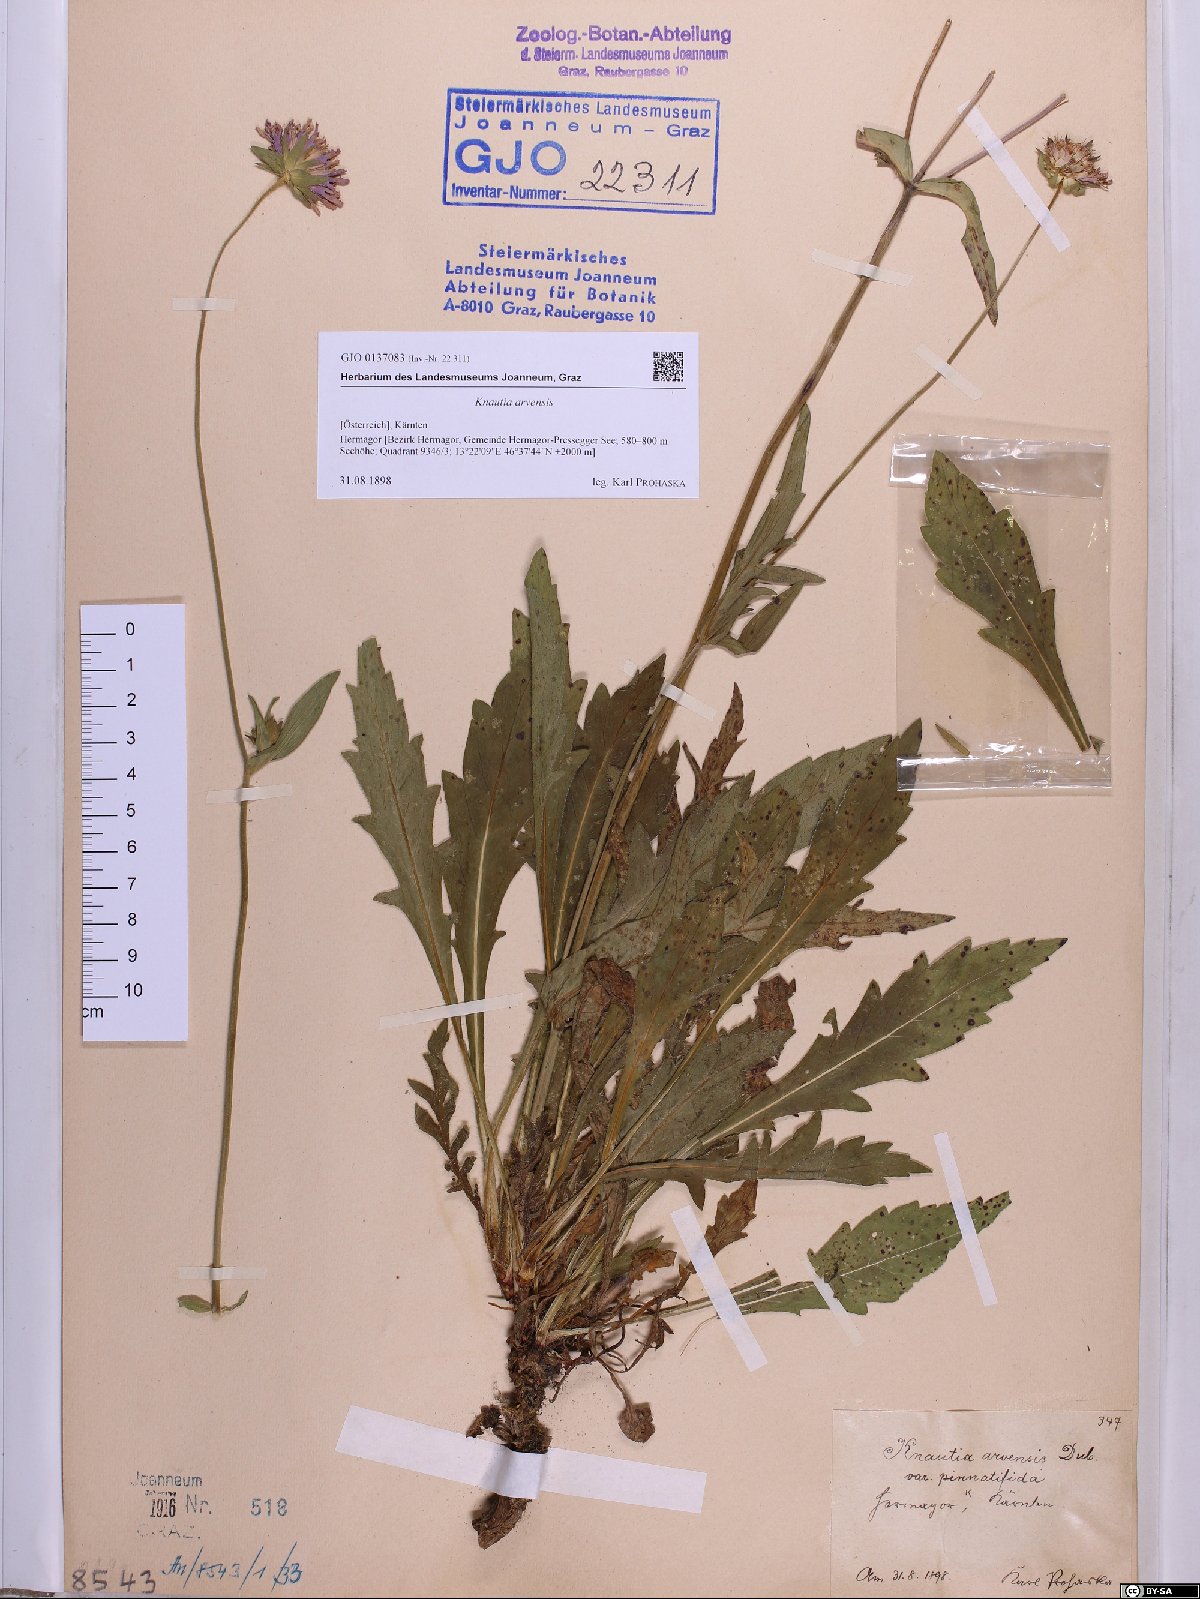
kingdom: Plantae
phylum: Tracheophyta
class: Magnoliopsida
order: Dipsacales
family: Caprifoliaceae
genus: Knautia
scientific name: Knautia arvensis
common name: Field scabiosa
